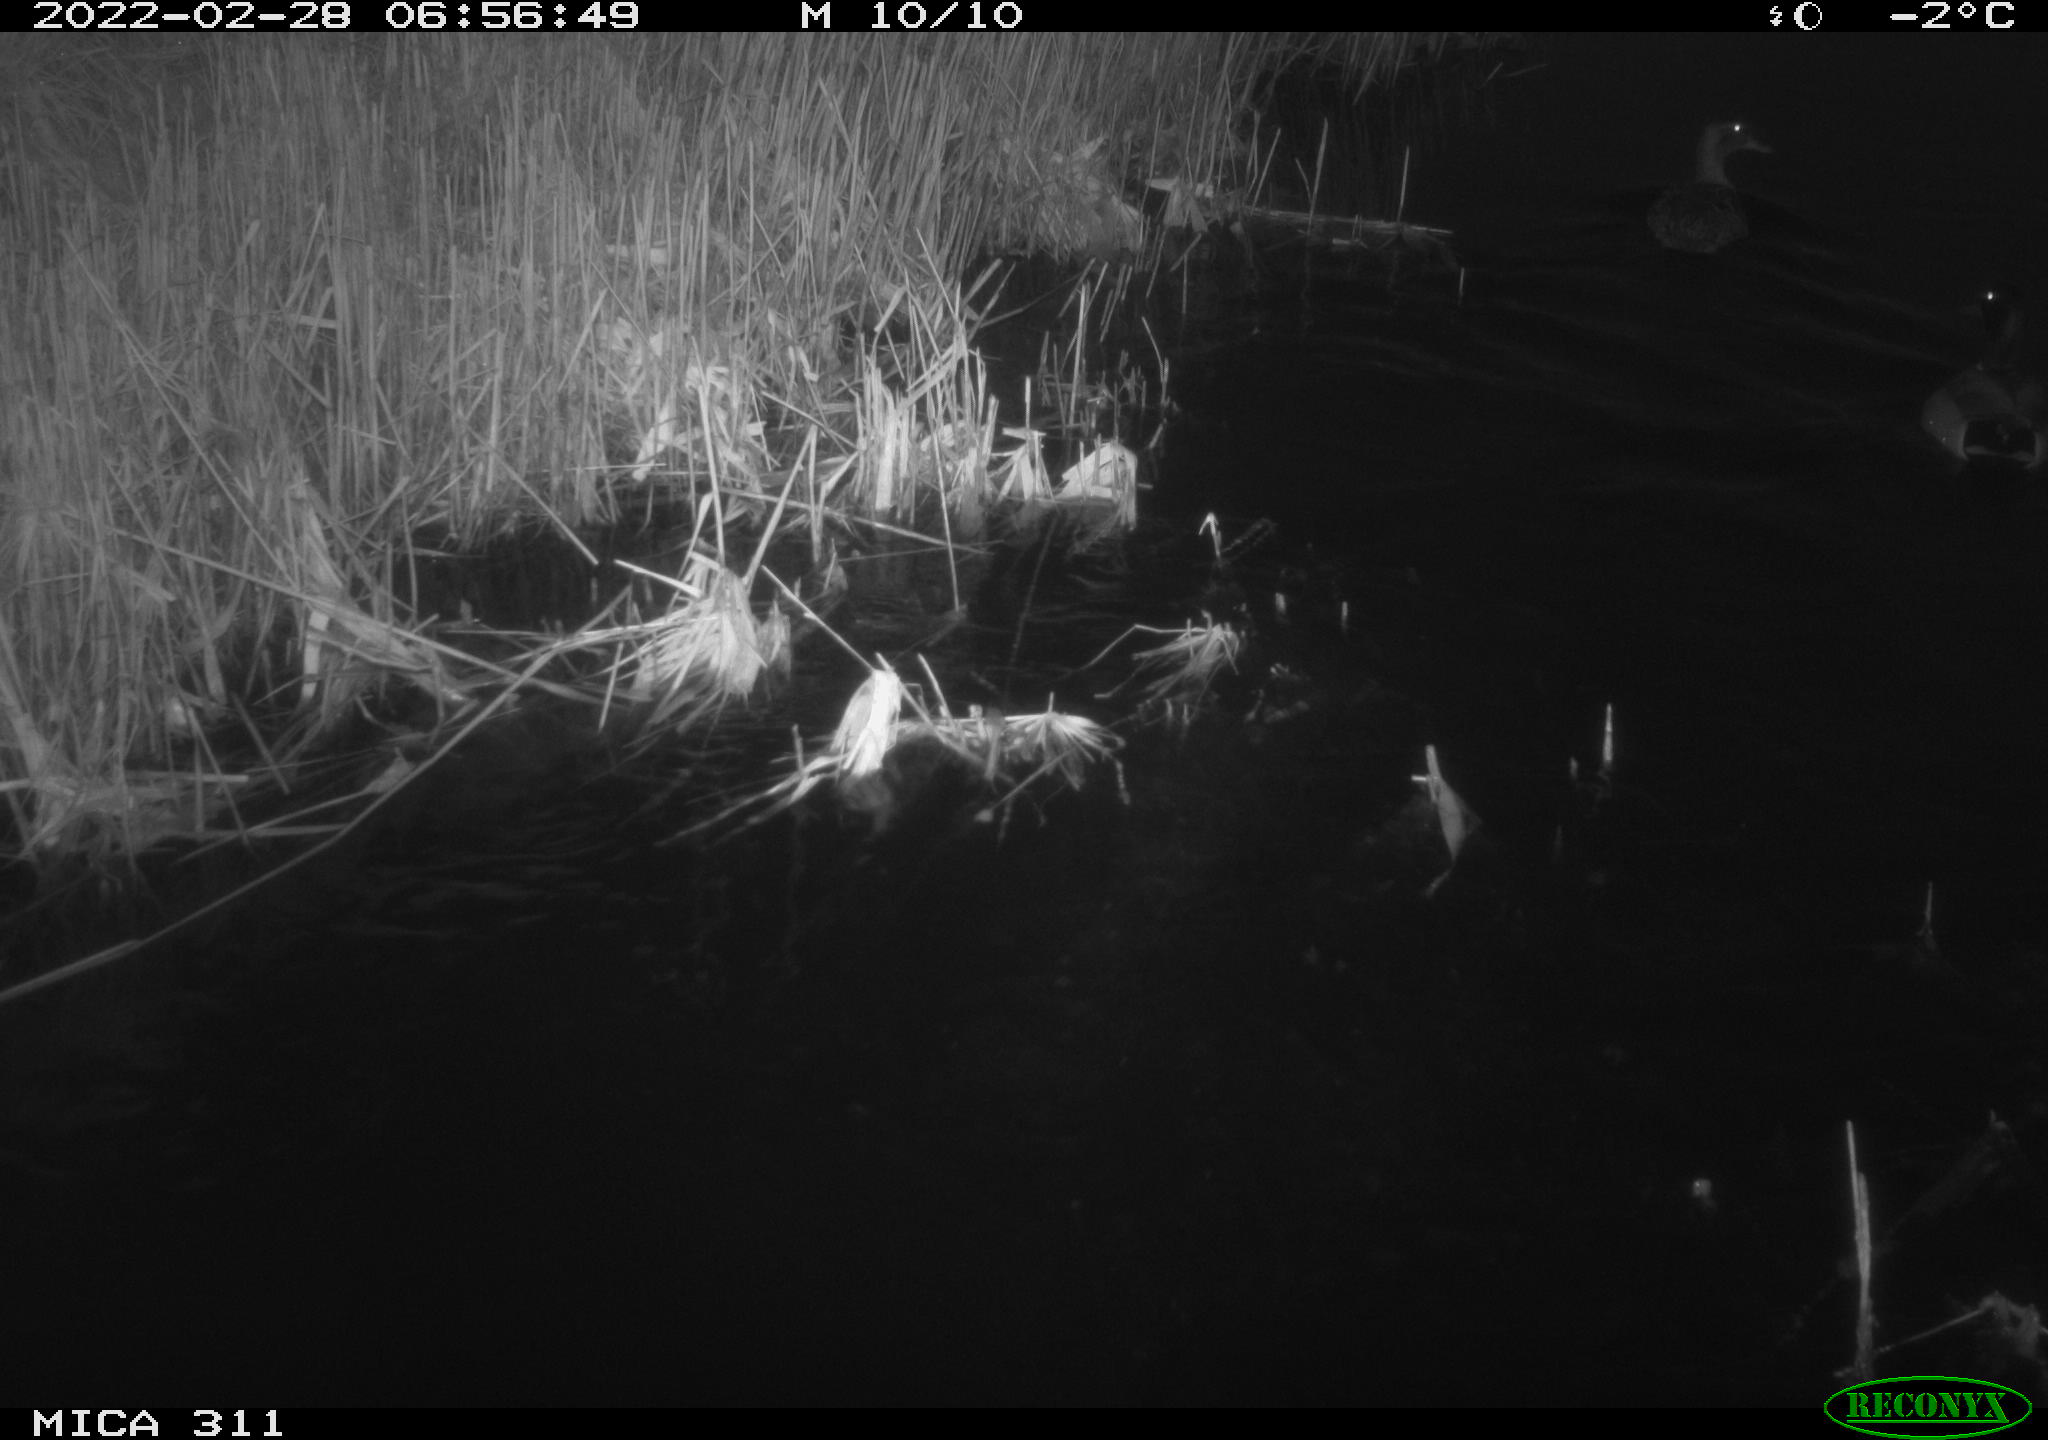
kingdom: Animalia
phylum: Chordata
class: Aves
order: Anseriformes
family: Anatidae
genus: Anas
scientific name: Anas platyrhynchos
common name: Mallard
